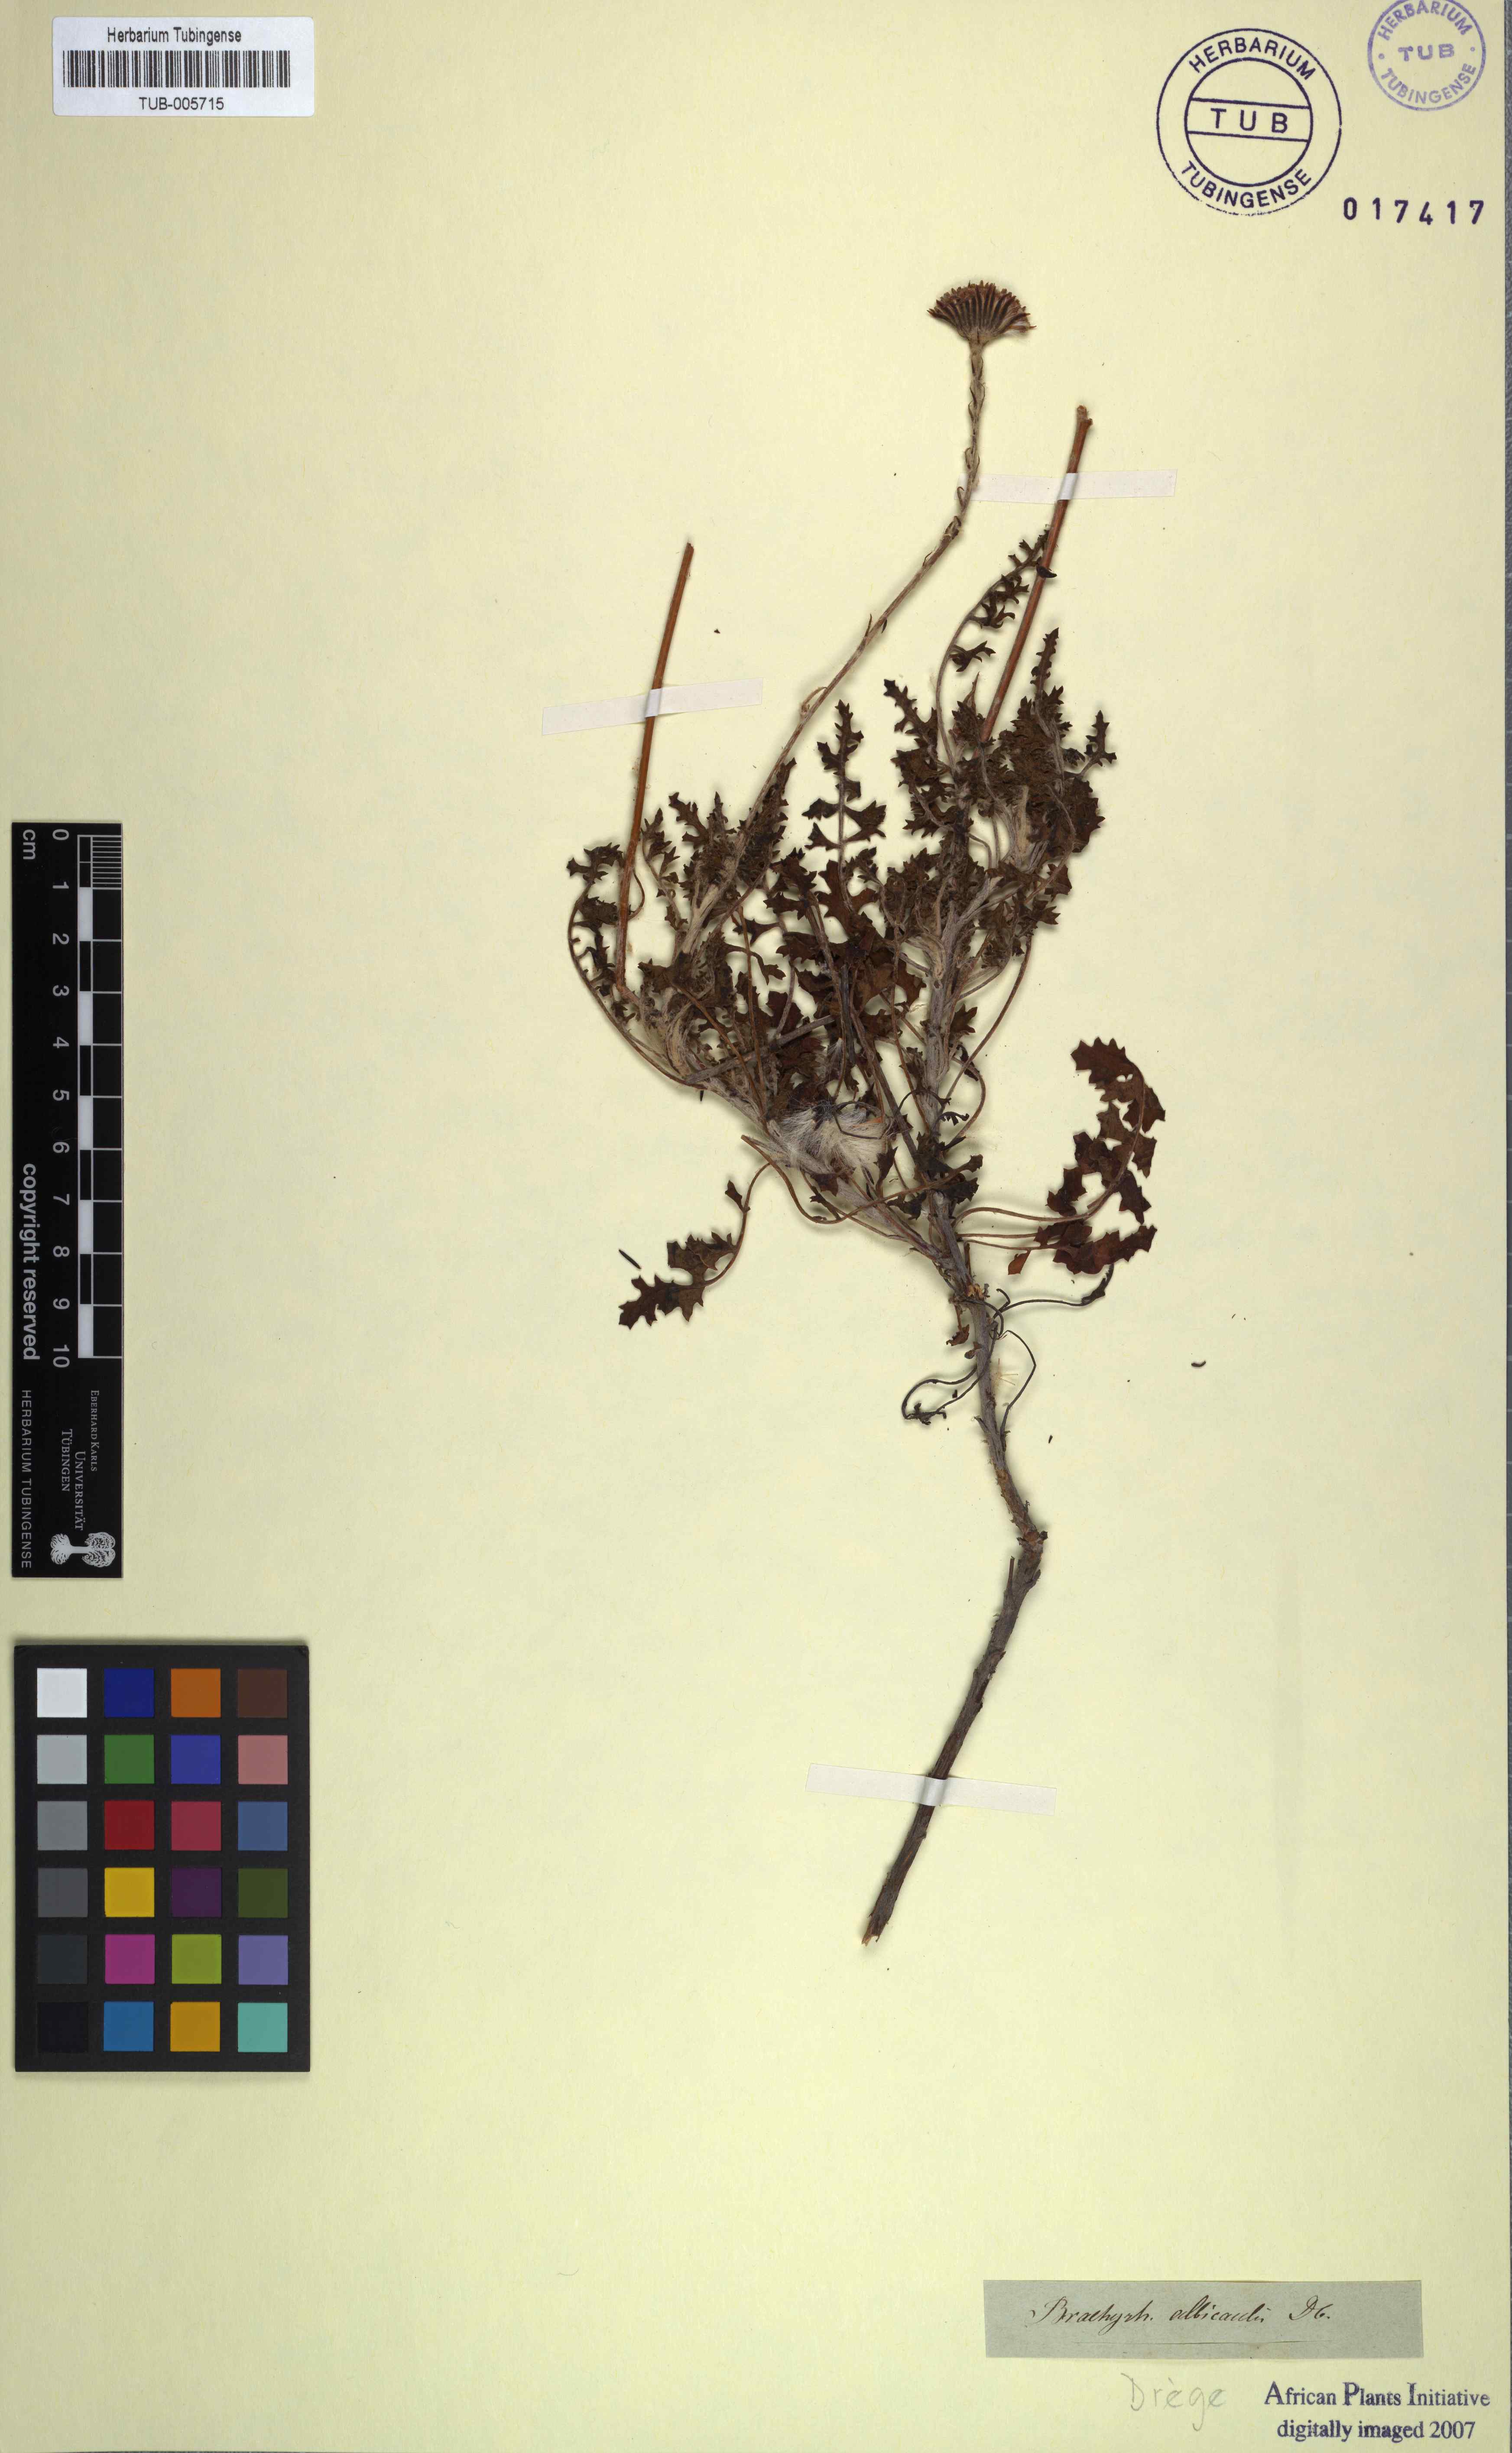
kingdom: Plantae
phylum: Tracheophyta
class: Magnoliopsida
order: Asterales
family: Asteraceae
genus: Bolandia
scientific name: Bolandia elongata
